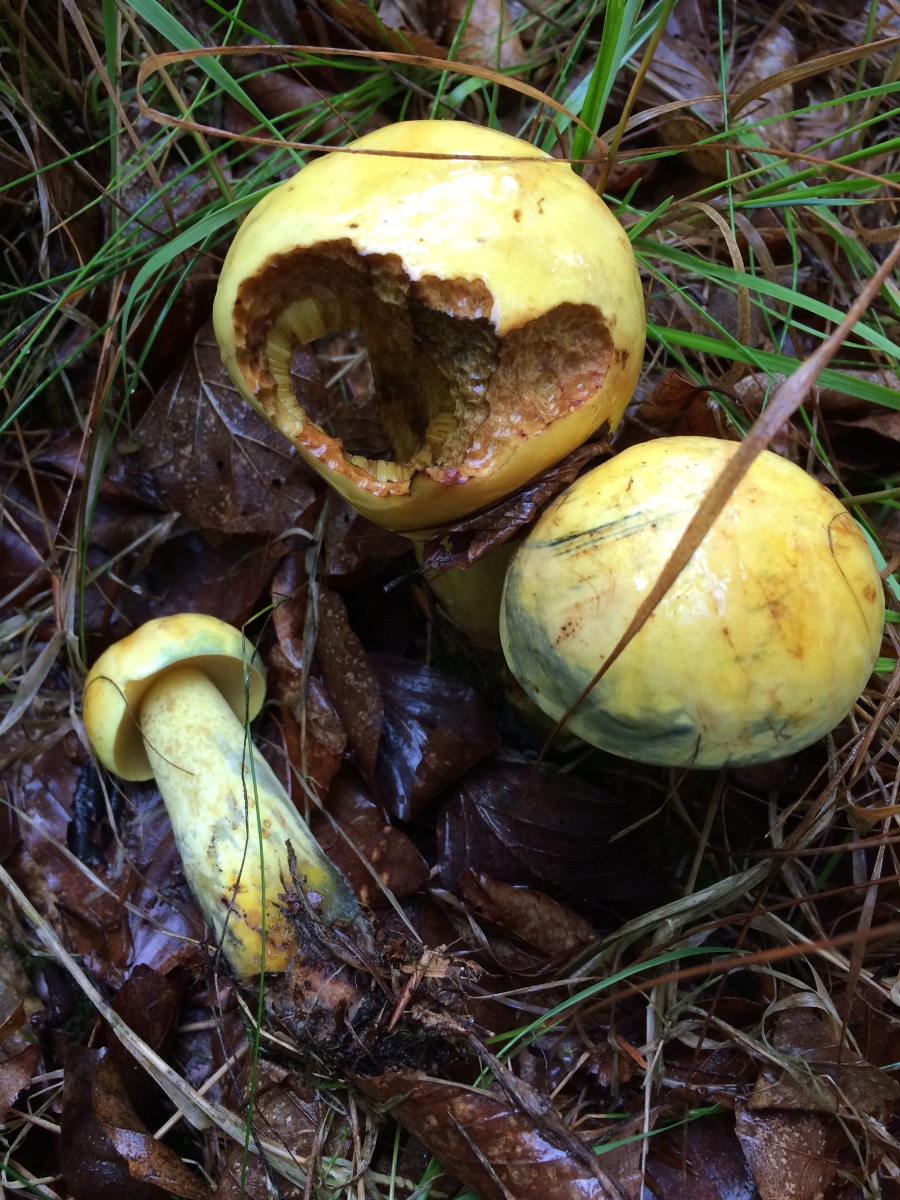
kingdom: Fungi
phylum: Basidiomycota
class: Agaricomycetes
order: Boletales
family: Boletaceae
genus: Neoboletus
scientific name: Neoboletus praestigiator
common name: gul indigorørhat
